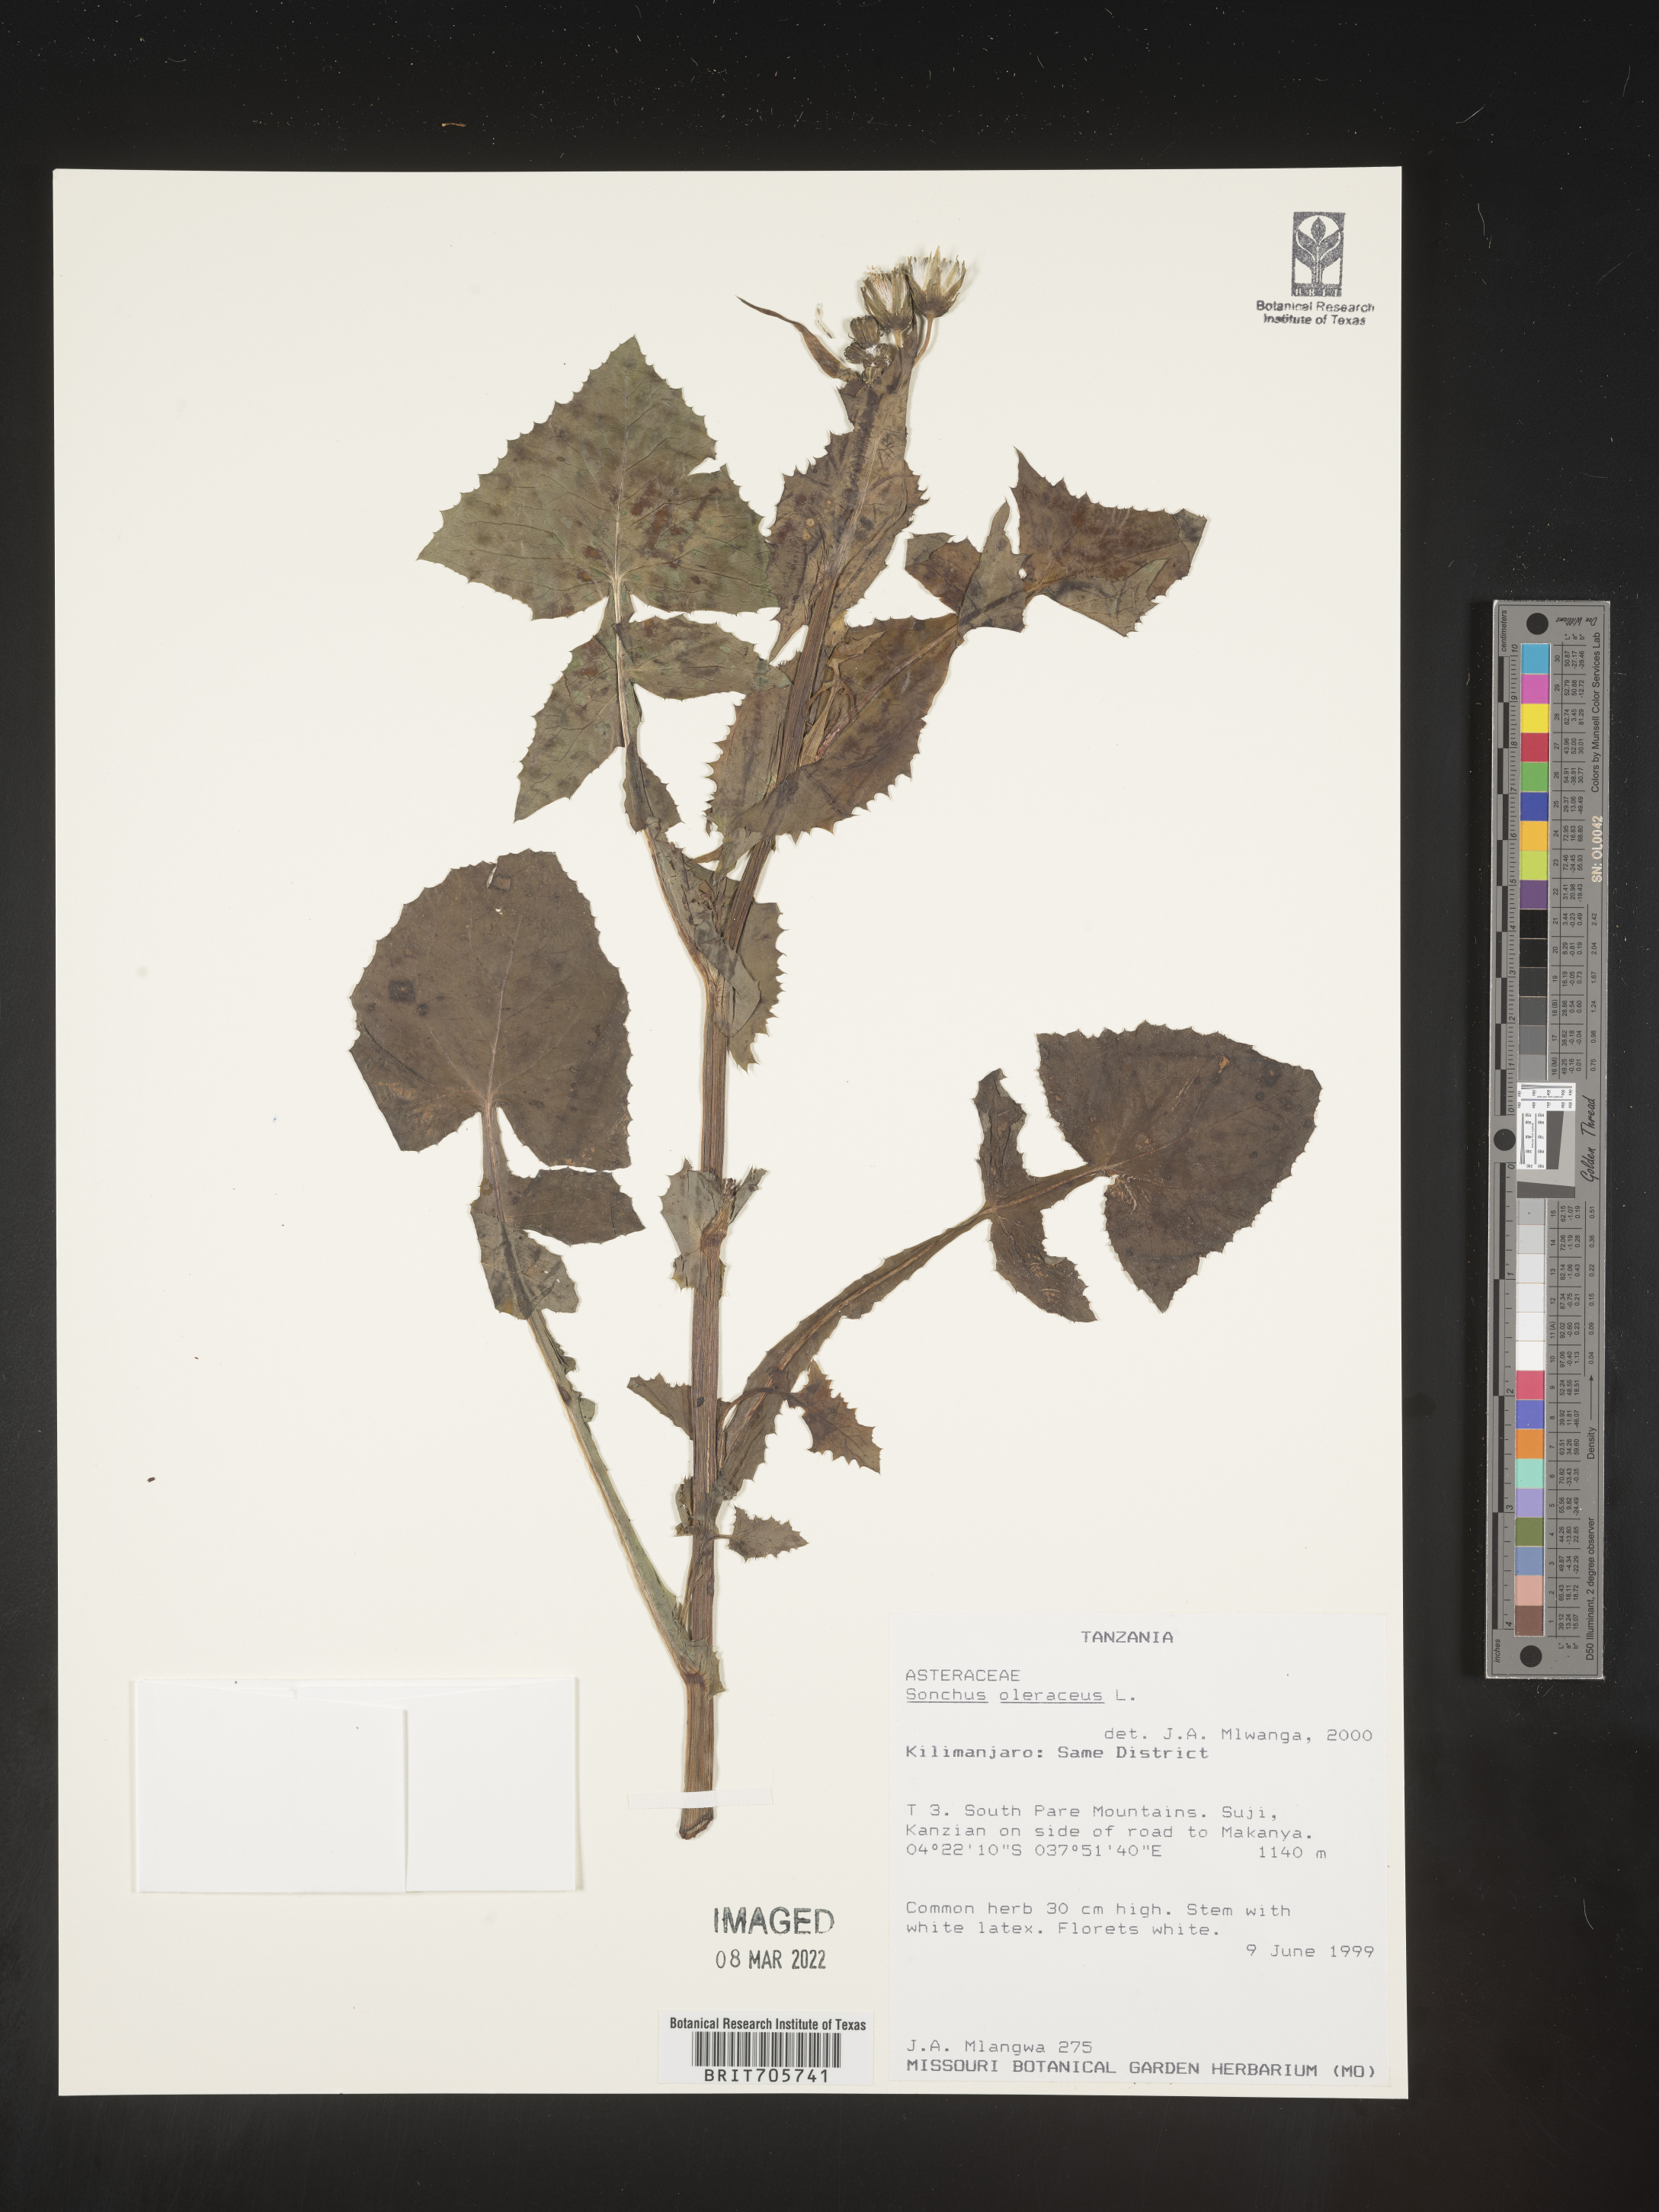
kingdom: Plantae
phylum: Tracheophyta
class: Magnoliopsida
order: Asterales
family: Asteraceae
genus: Sonchus
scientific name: Sonchus
